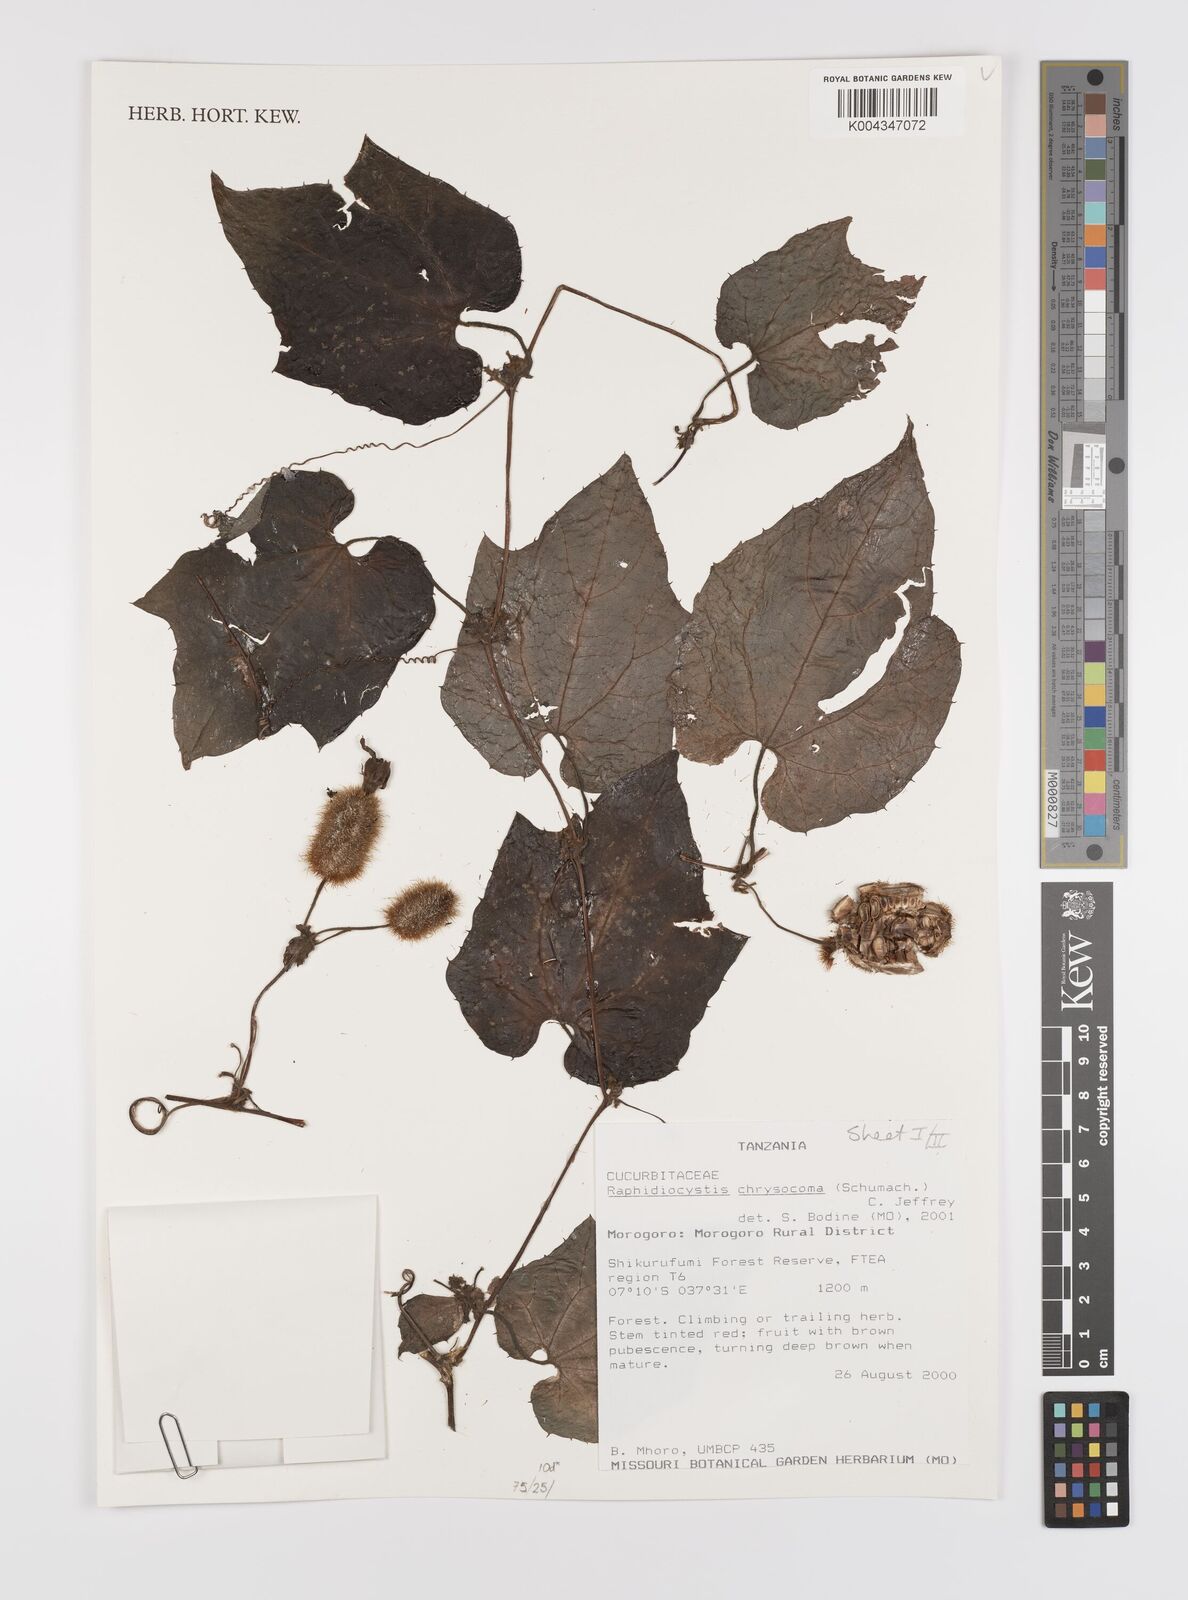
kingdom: Plantae
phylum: Tracheophyta
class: Magnoliopsida
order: Cucurbitales
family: Cucurbitaceae
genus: Raphidiocystis
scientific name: Raphidiocystis chrysocoma
